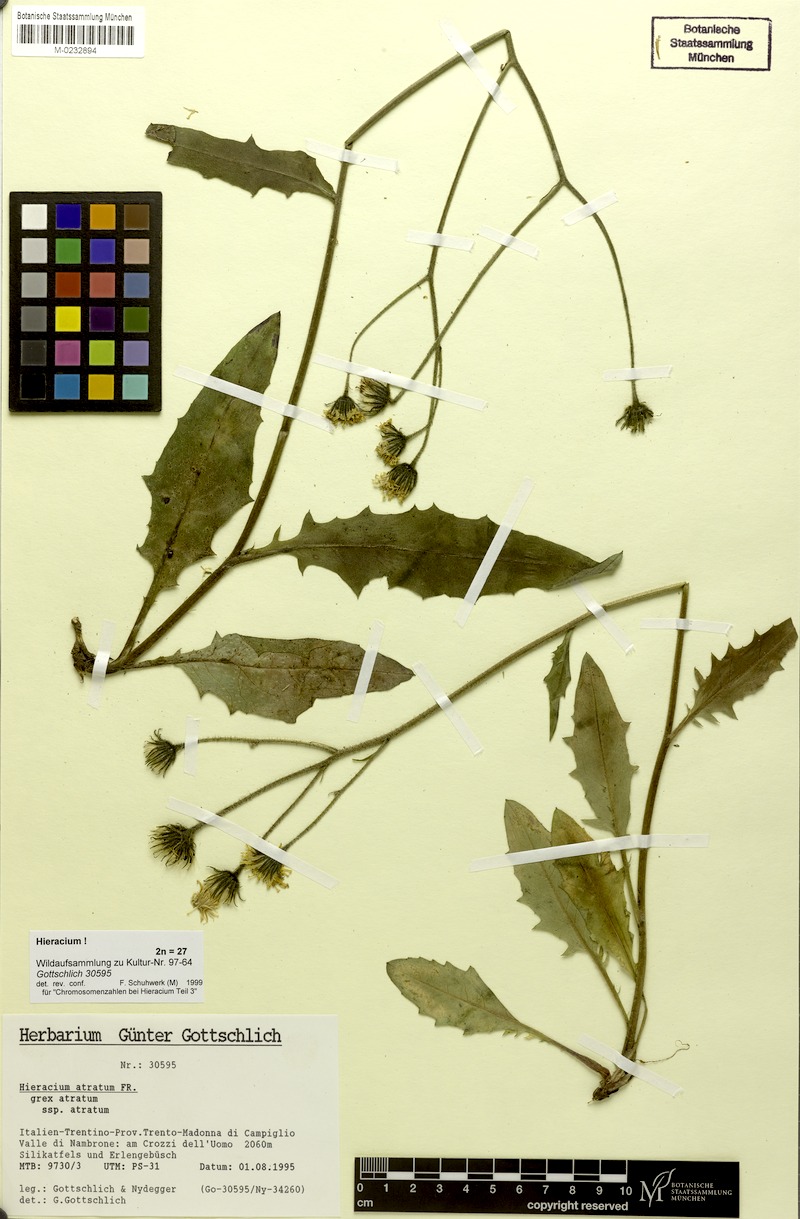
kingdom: Plantae
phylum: Tracheophyta
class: Magnoliopsida
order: Asterales
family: Asteraceae
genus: Hieracium
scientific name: Hieracium atratum
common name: Polar hawkweed
